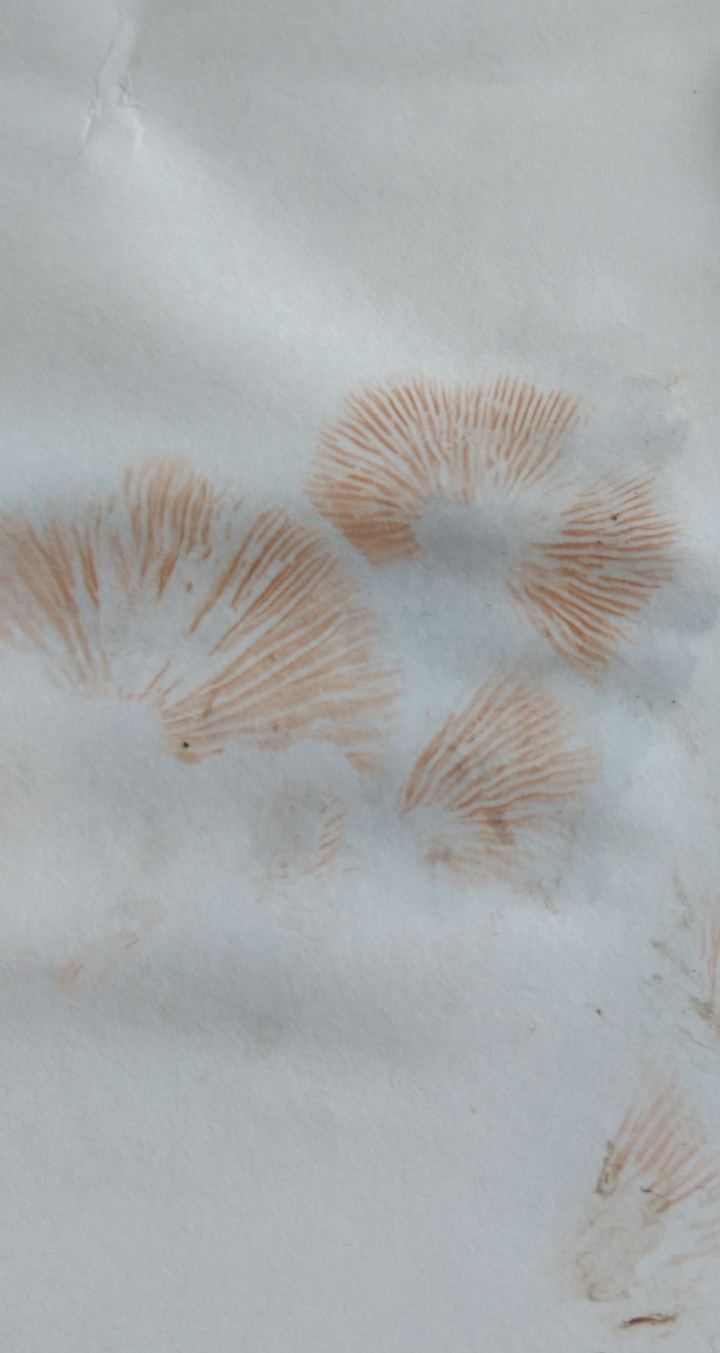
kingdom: Fungi
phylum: Basidiomycota
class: Agaricomycetes
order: Agaricales
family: Entolomataceae
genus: Entoloma
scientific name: Entoloma waverenii
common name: trævlet rødblad
